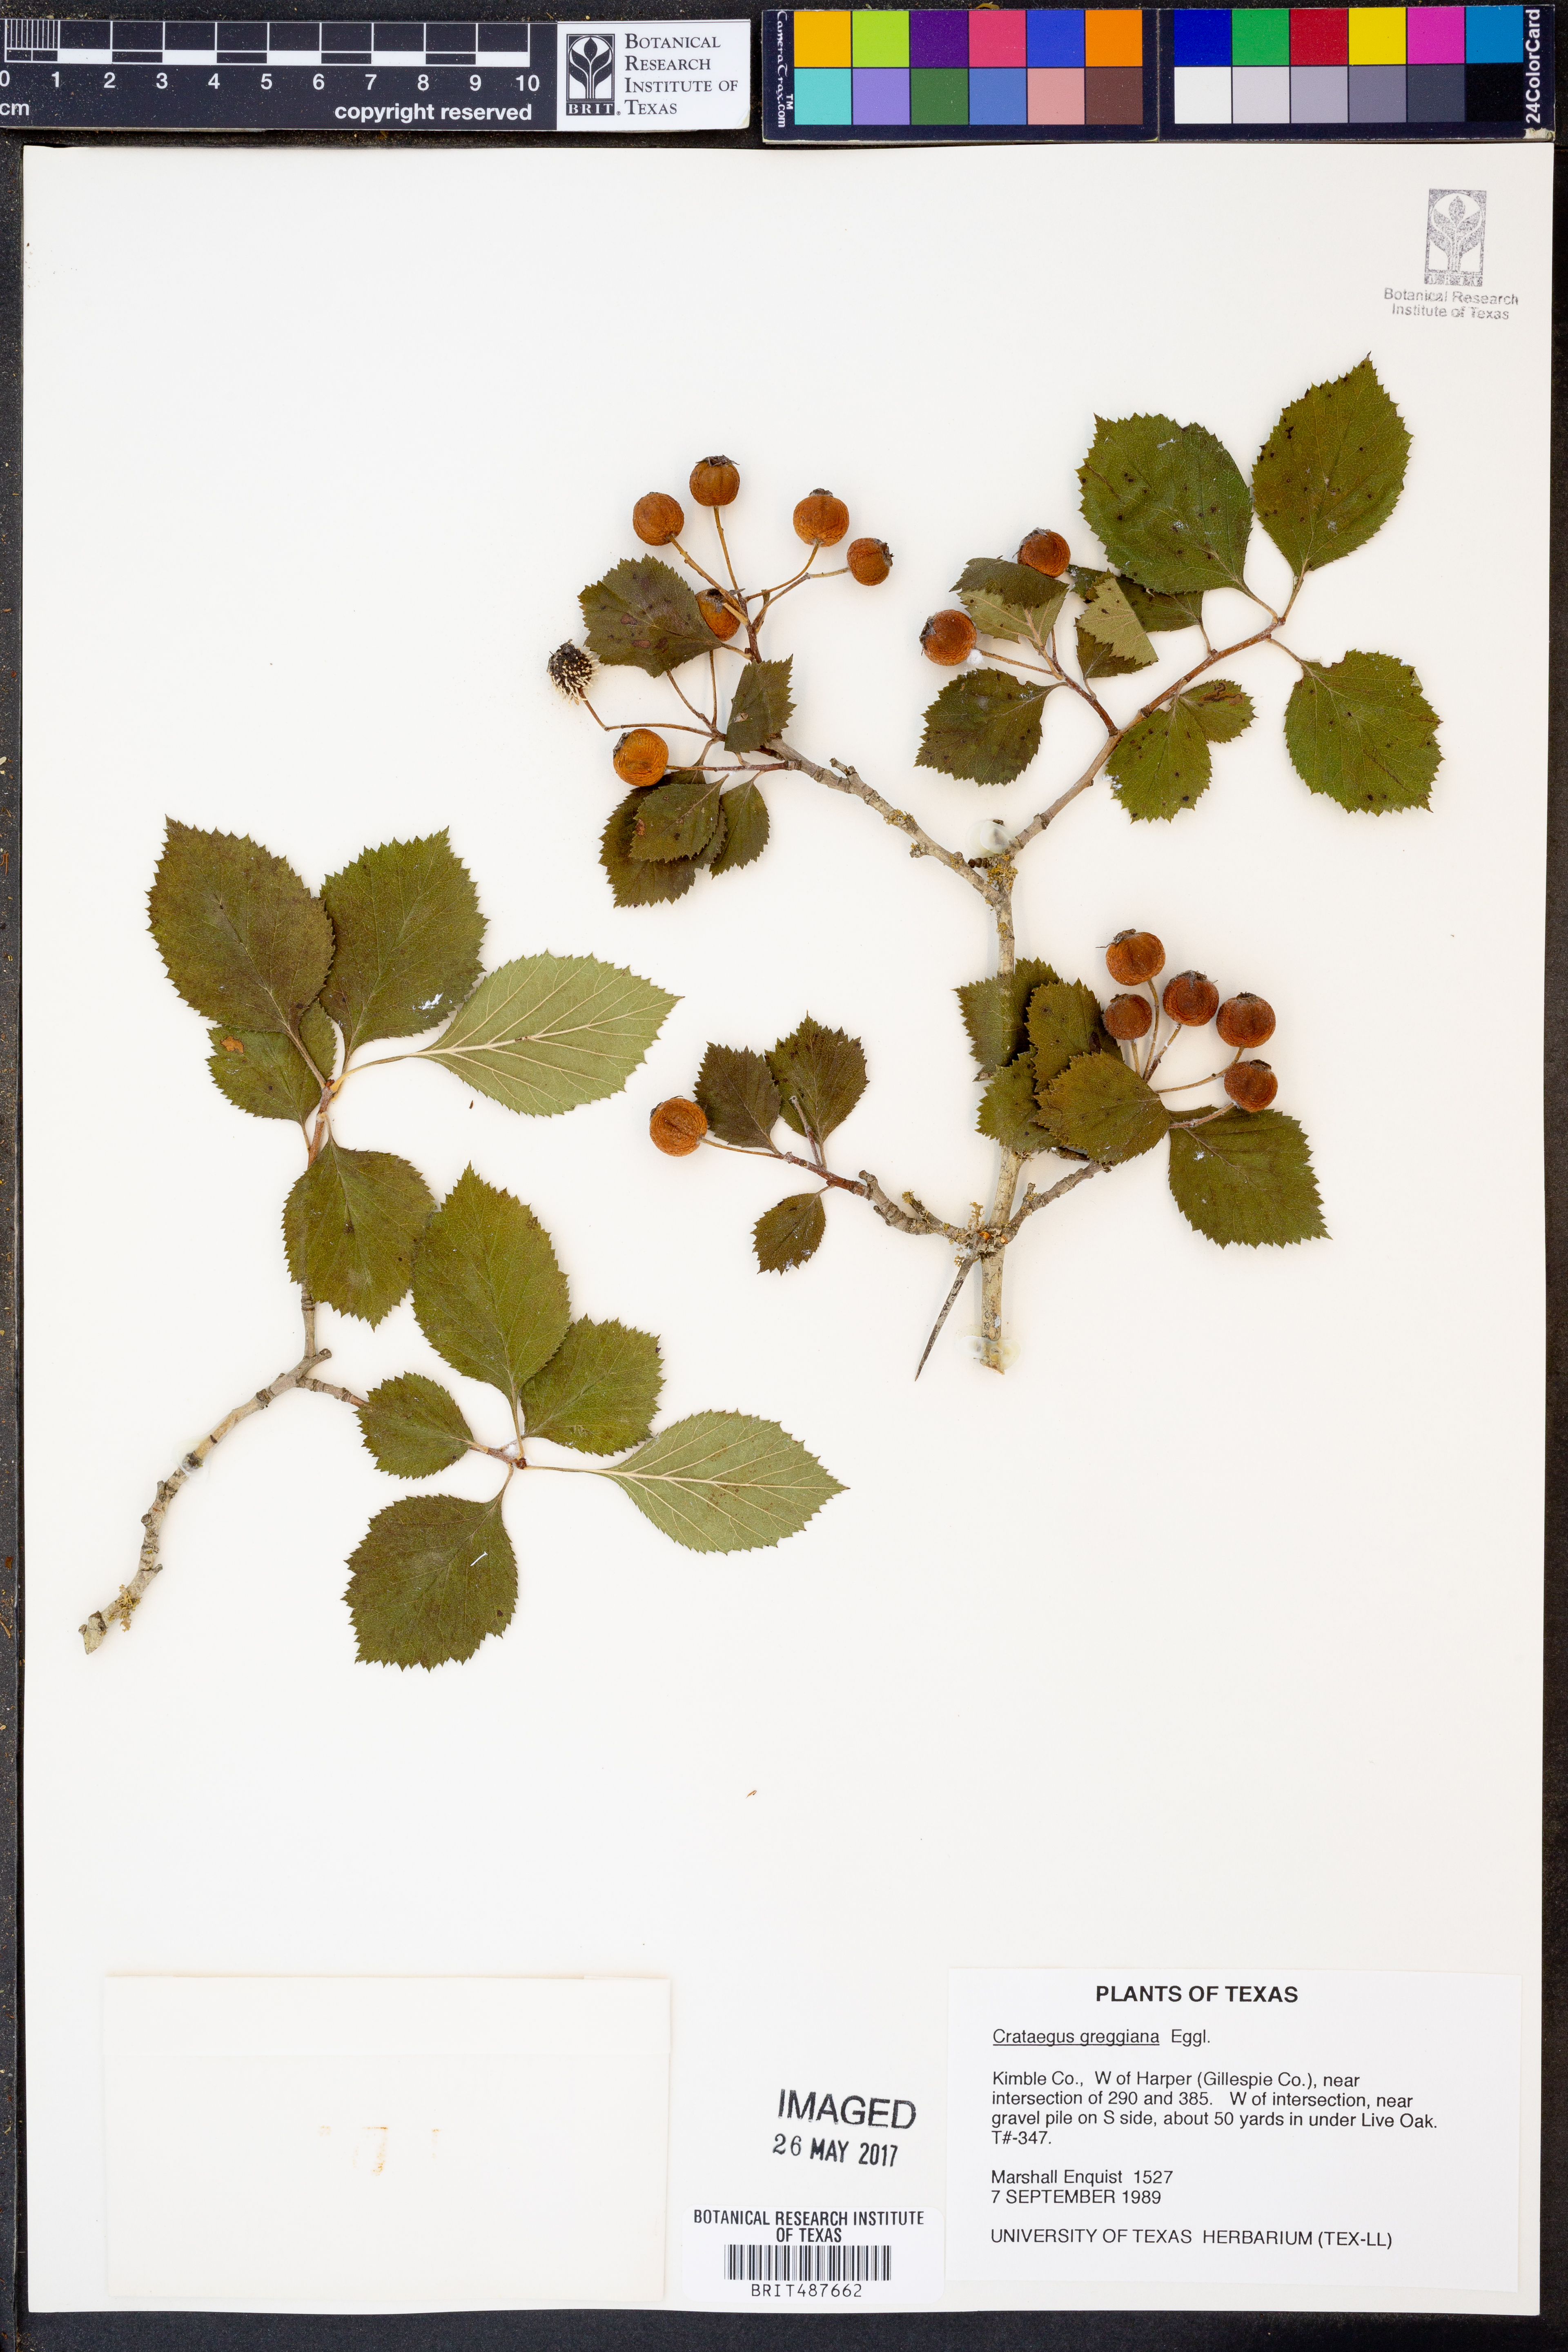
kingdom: Plantae
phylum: Tracheophyta
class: Magnoliopsida
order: Rosales
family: Rosaceae
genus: Crataegus
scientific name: Crataegus greggiana
